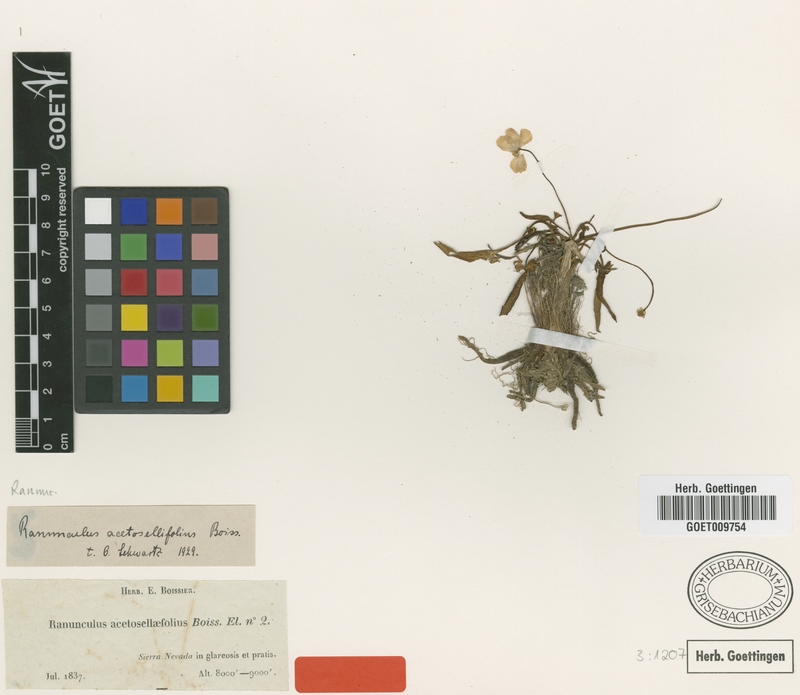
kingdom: Plantae
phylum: Tracheophyta
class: Magnoliopsida
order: Ranunculales
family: Ranunculaceae
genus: Ranunculus
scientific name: Ranunculus acetosellifolius
